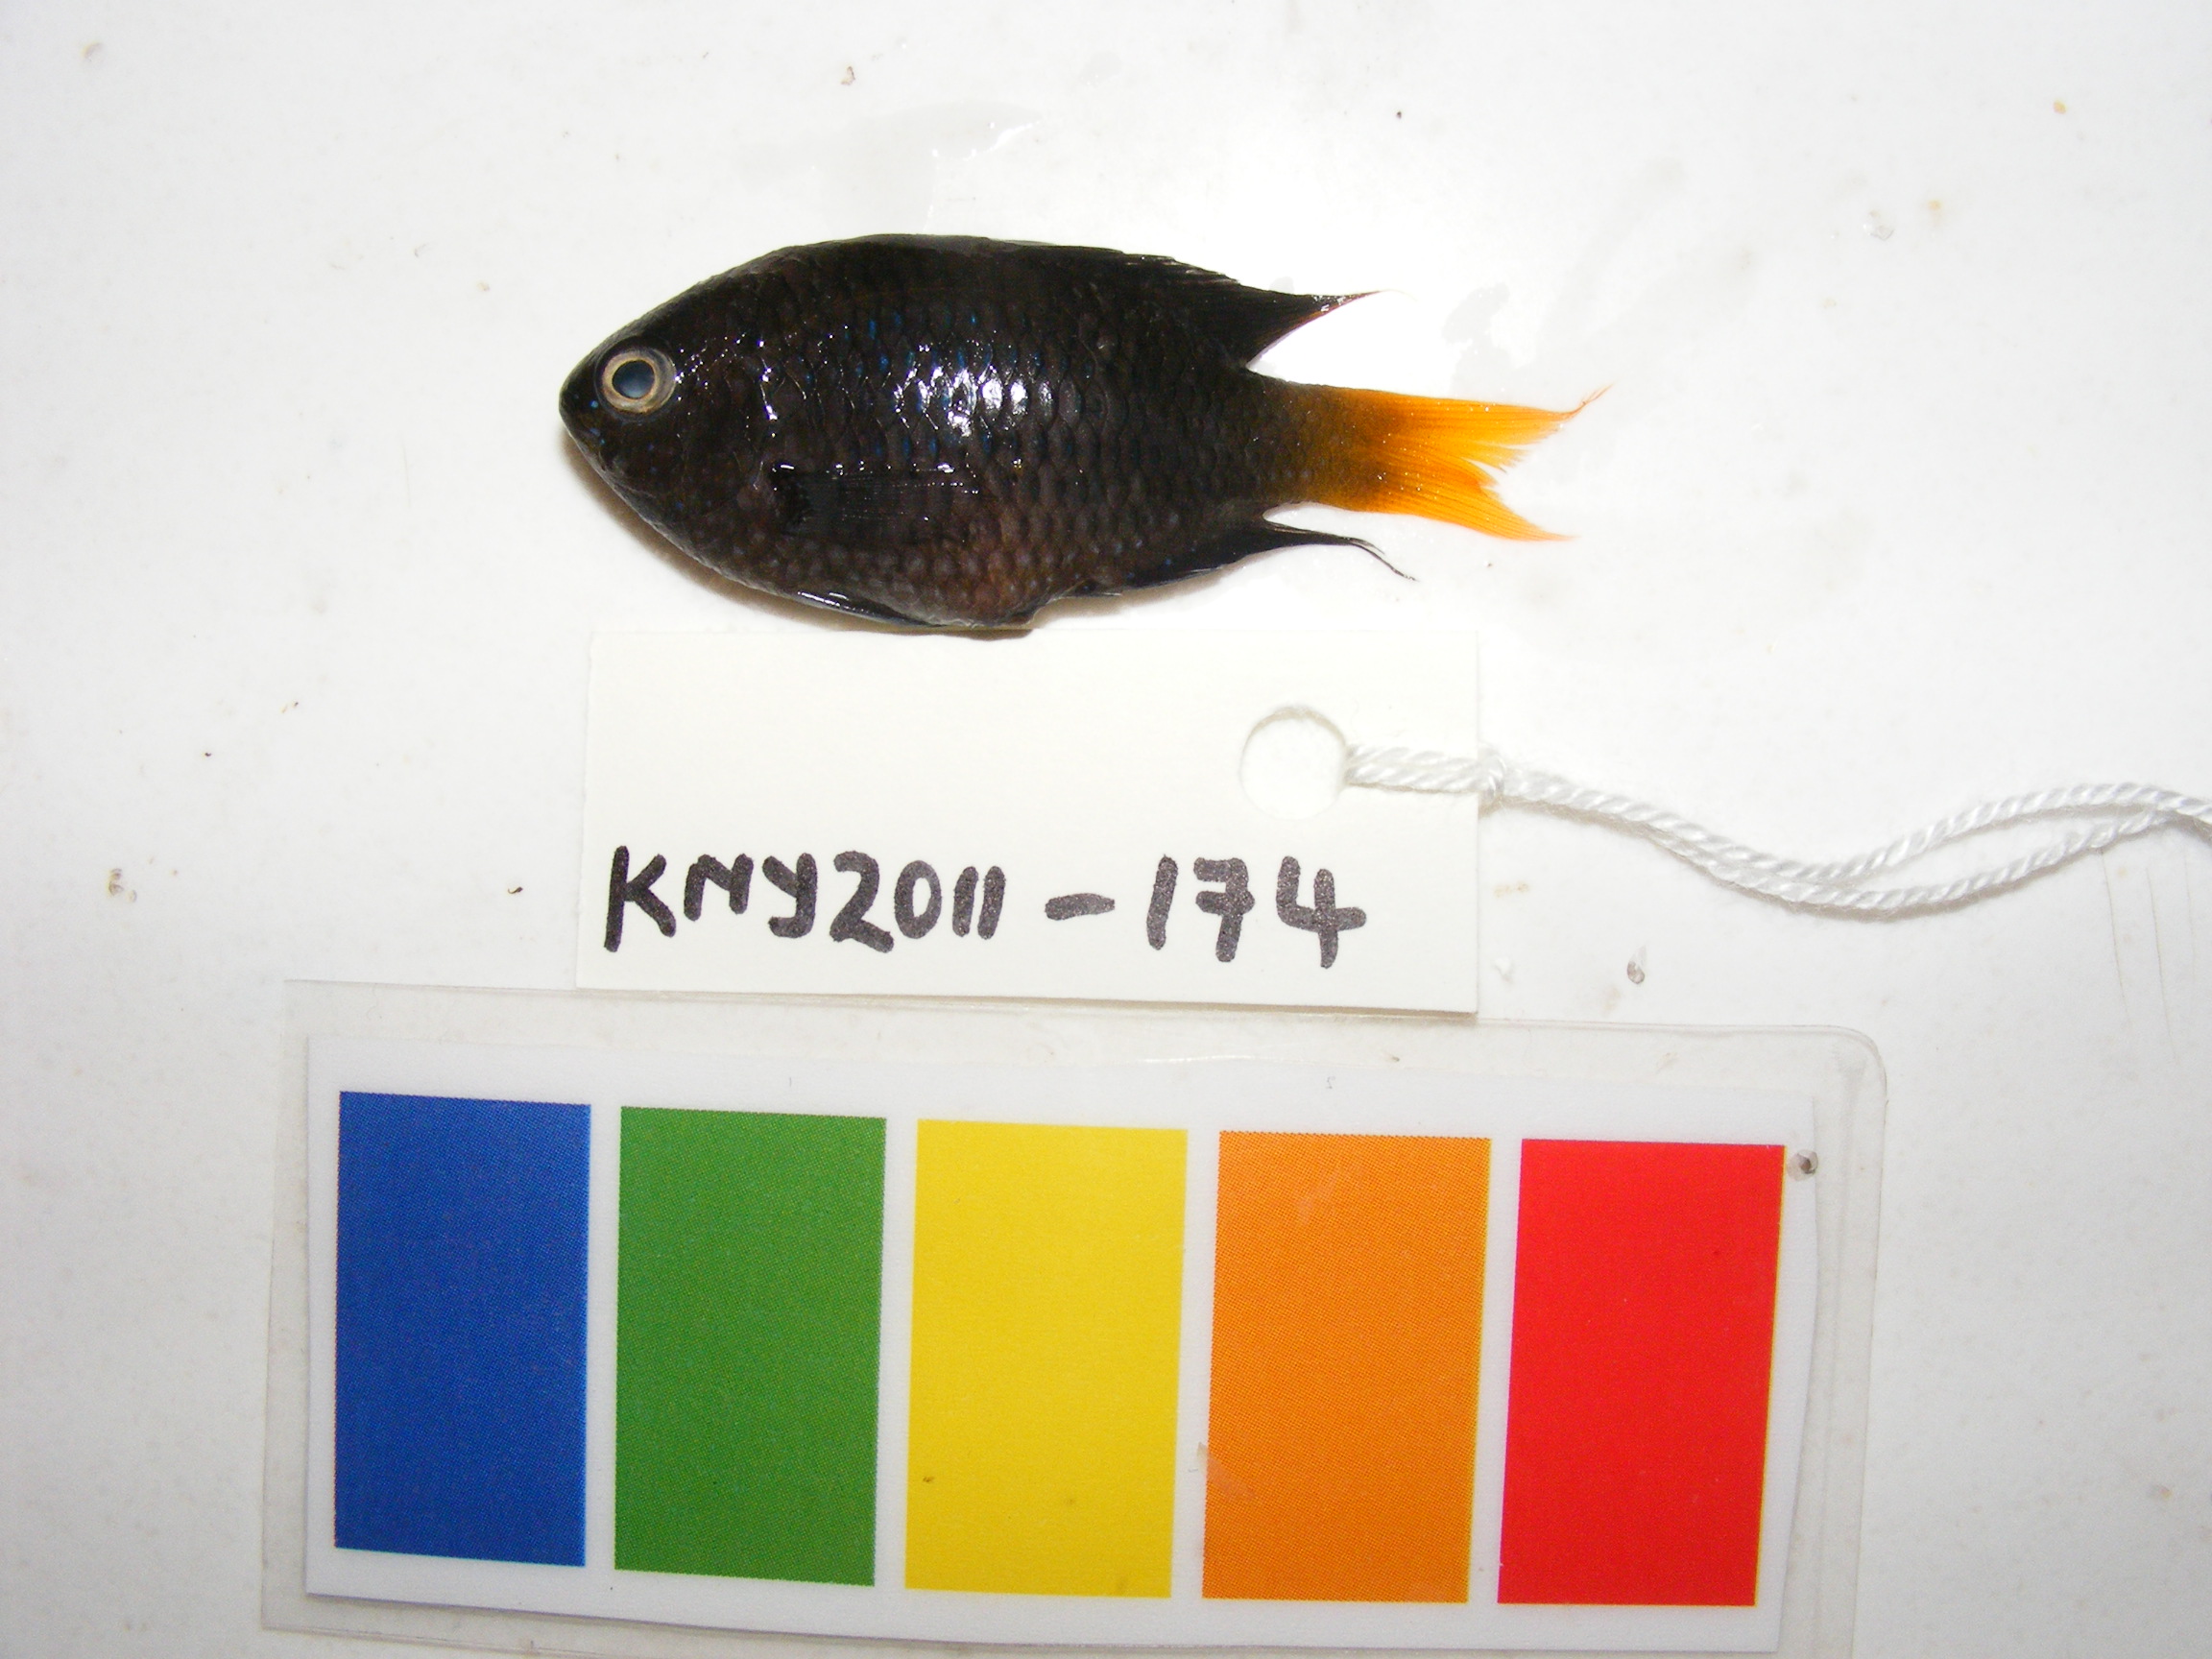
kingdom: Animalia
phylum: Chordata
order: Perciformes
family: Pomacentridae
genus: Neopomacentrus
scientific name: Neopomacentrus
